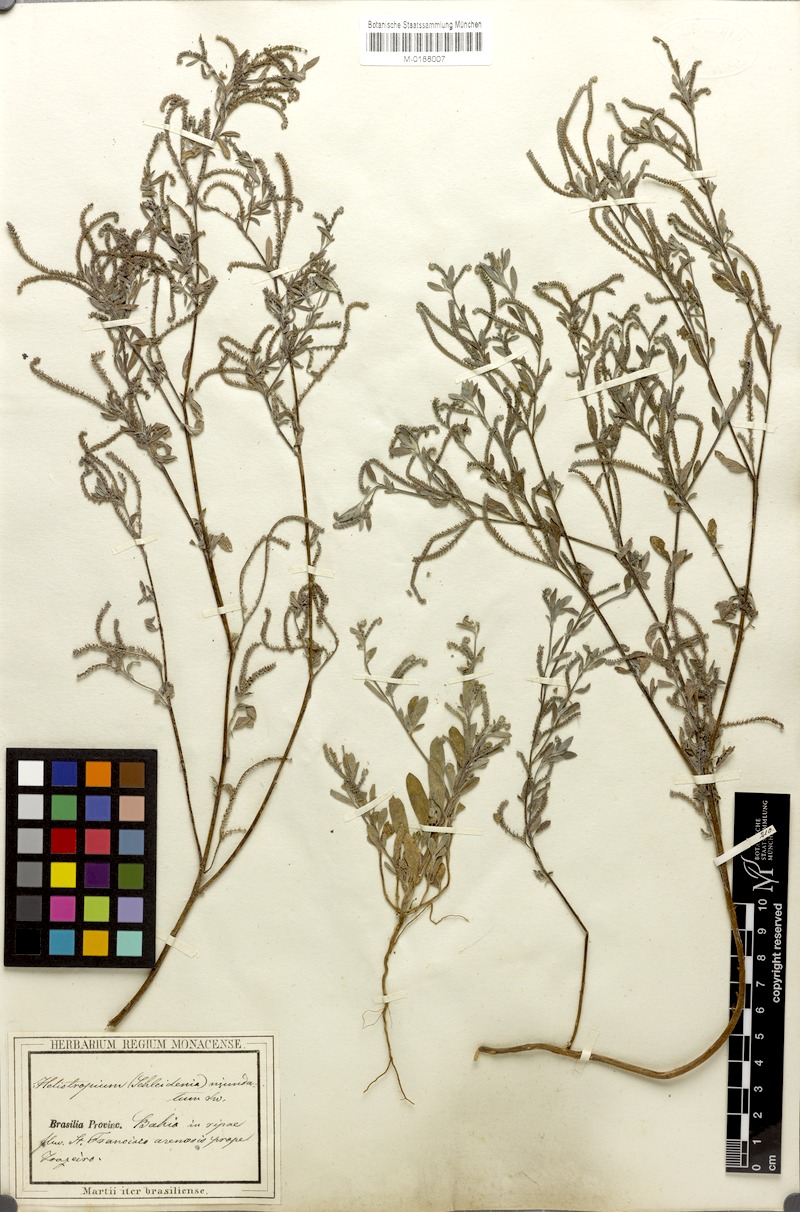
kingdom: Plantae
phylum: Tracheophyta
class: Magnoliopsida
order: Boraginales
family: Heliotropiaceae
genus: Euploca
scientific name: Euploca procumbens
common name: Fourspike heliotrope
